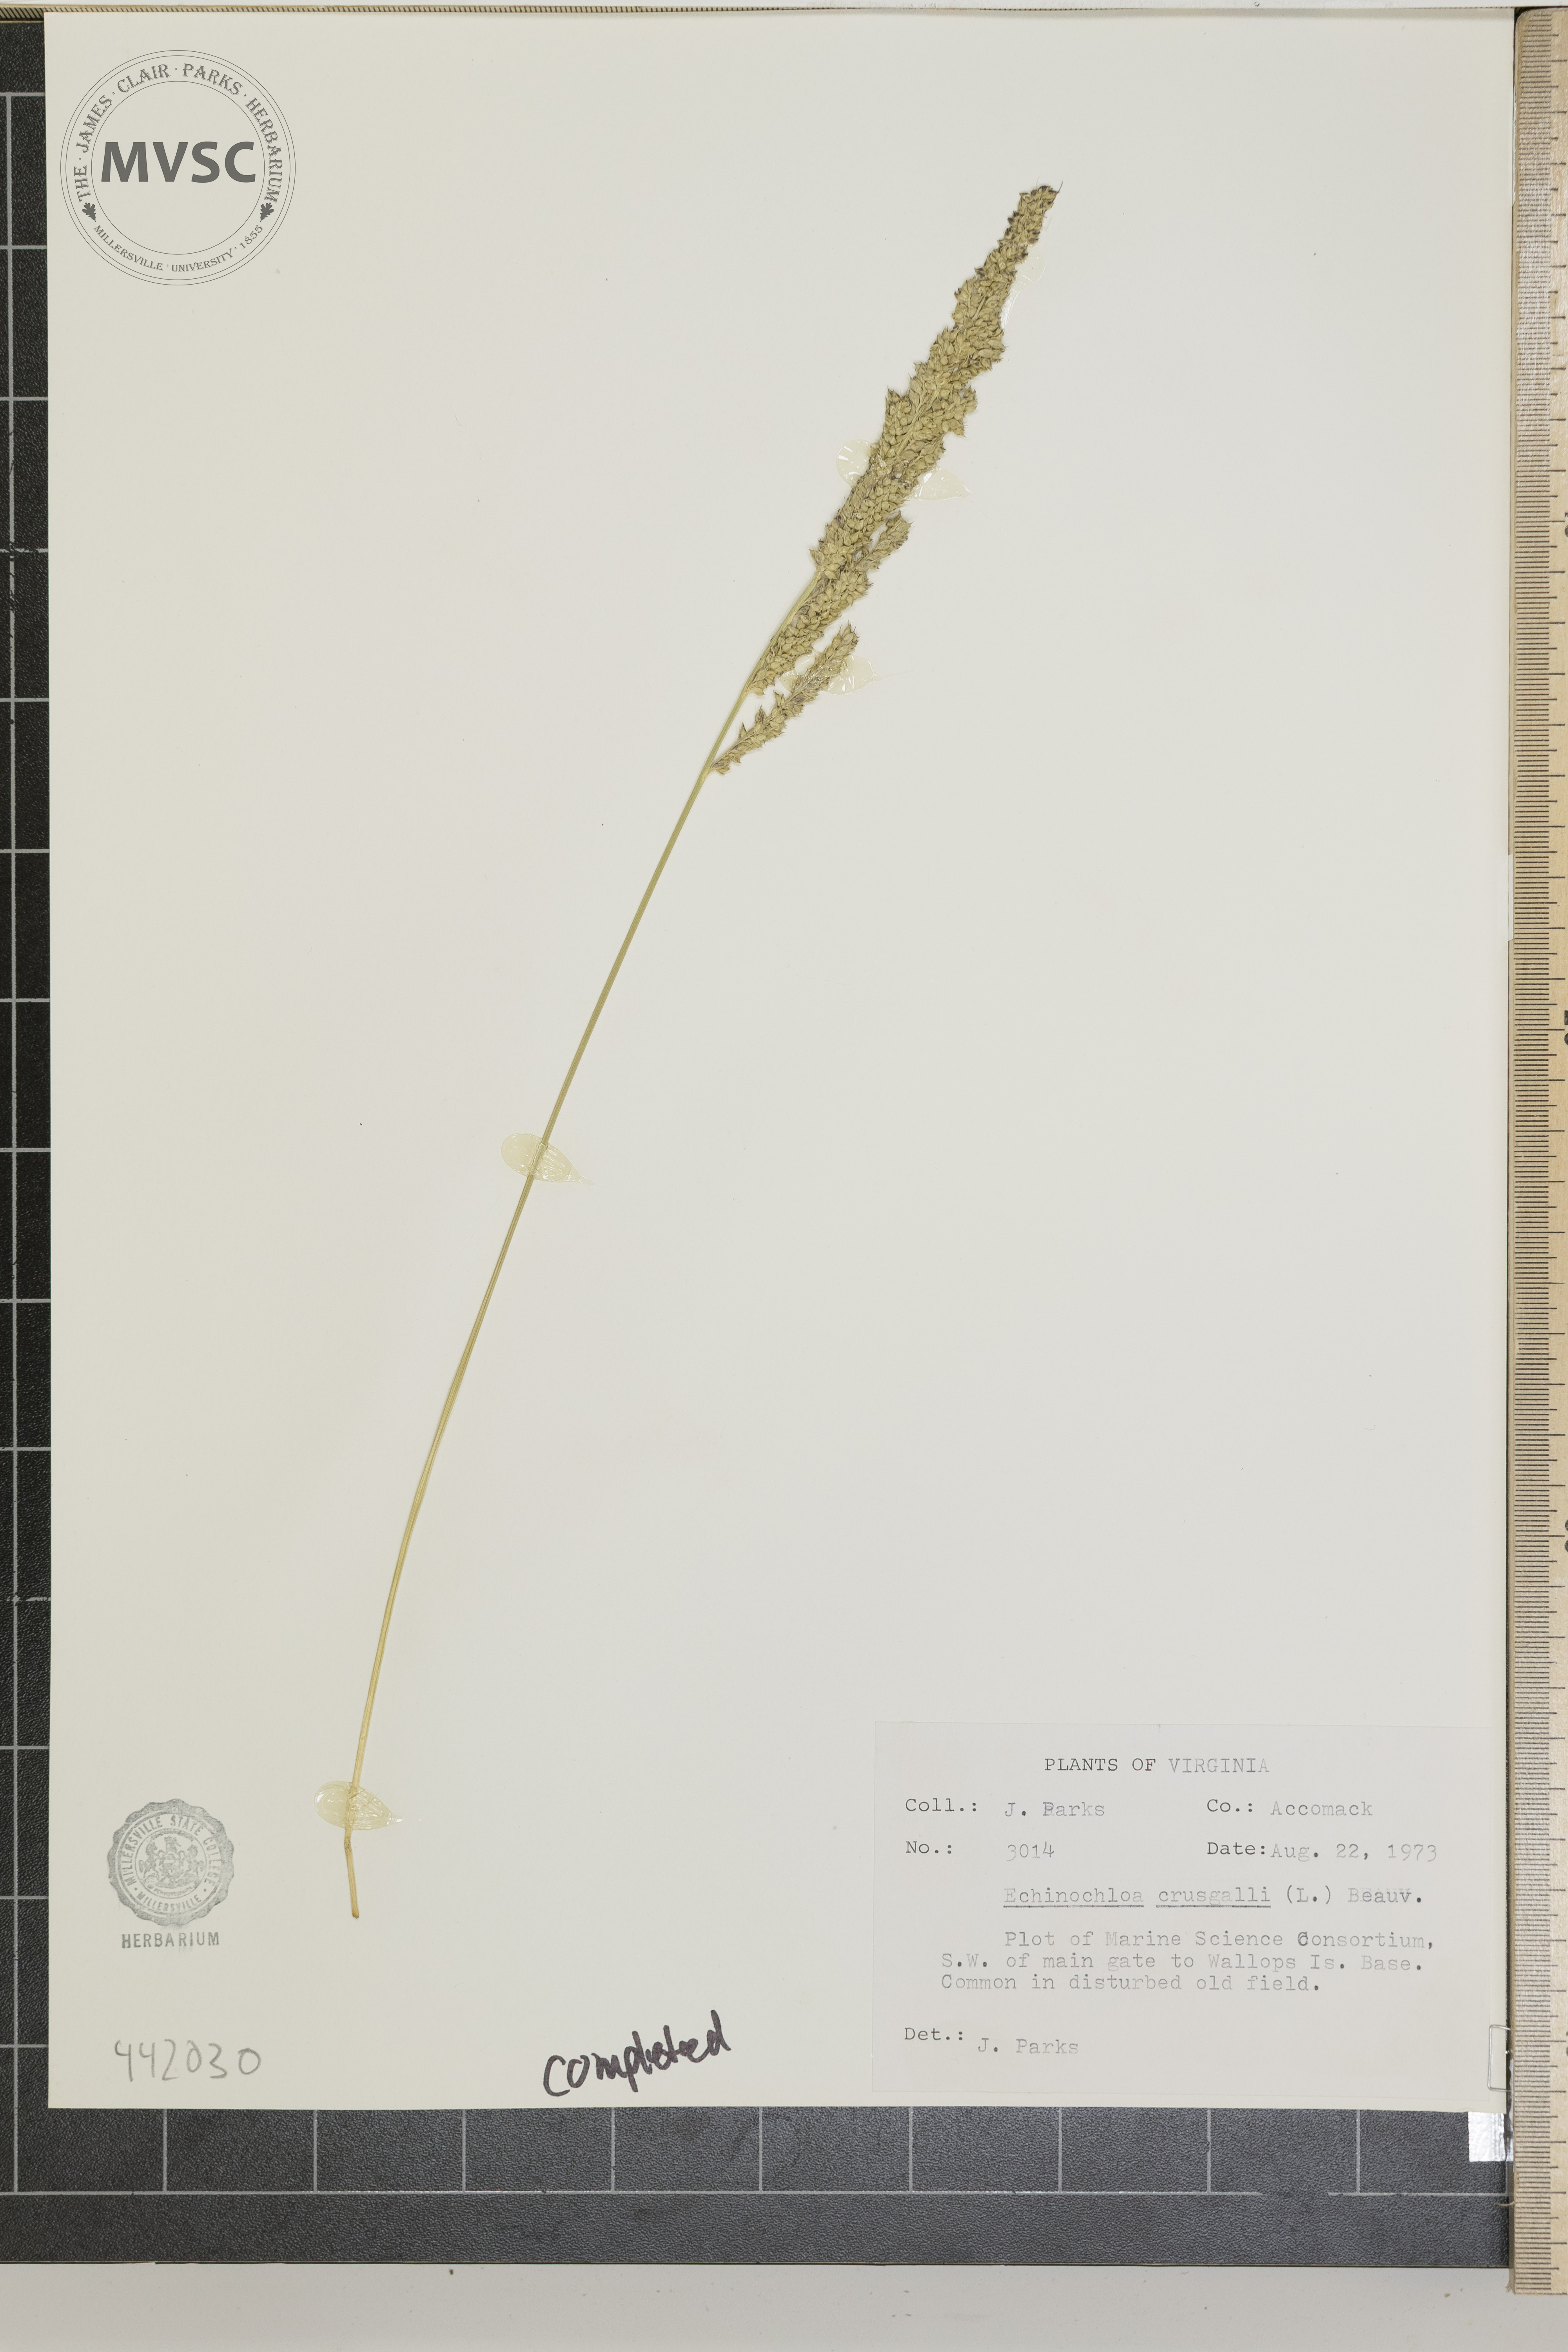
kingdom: Plantae
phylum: Tracheophyta
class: Liliopsida
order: Poales
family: Poaceae
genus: Echinochloa
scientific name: Echinochloa crus-galli
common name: Cockspur
